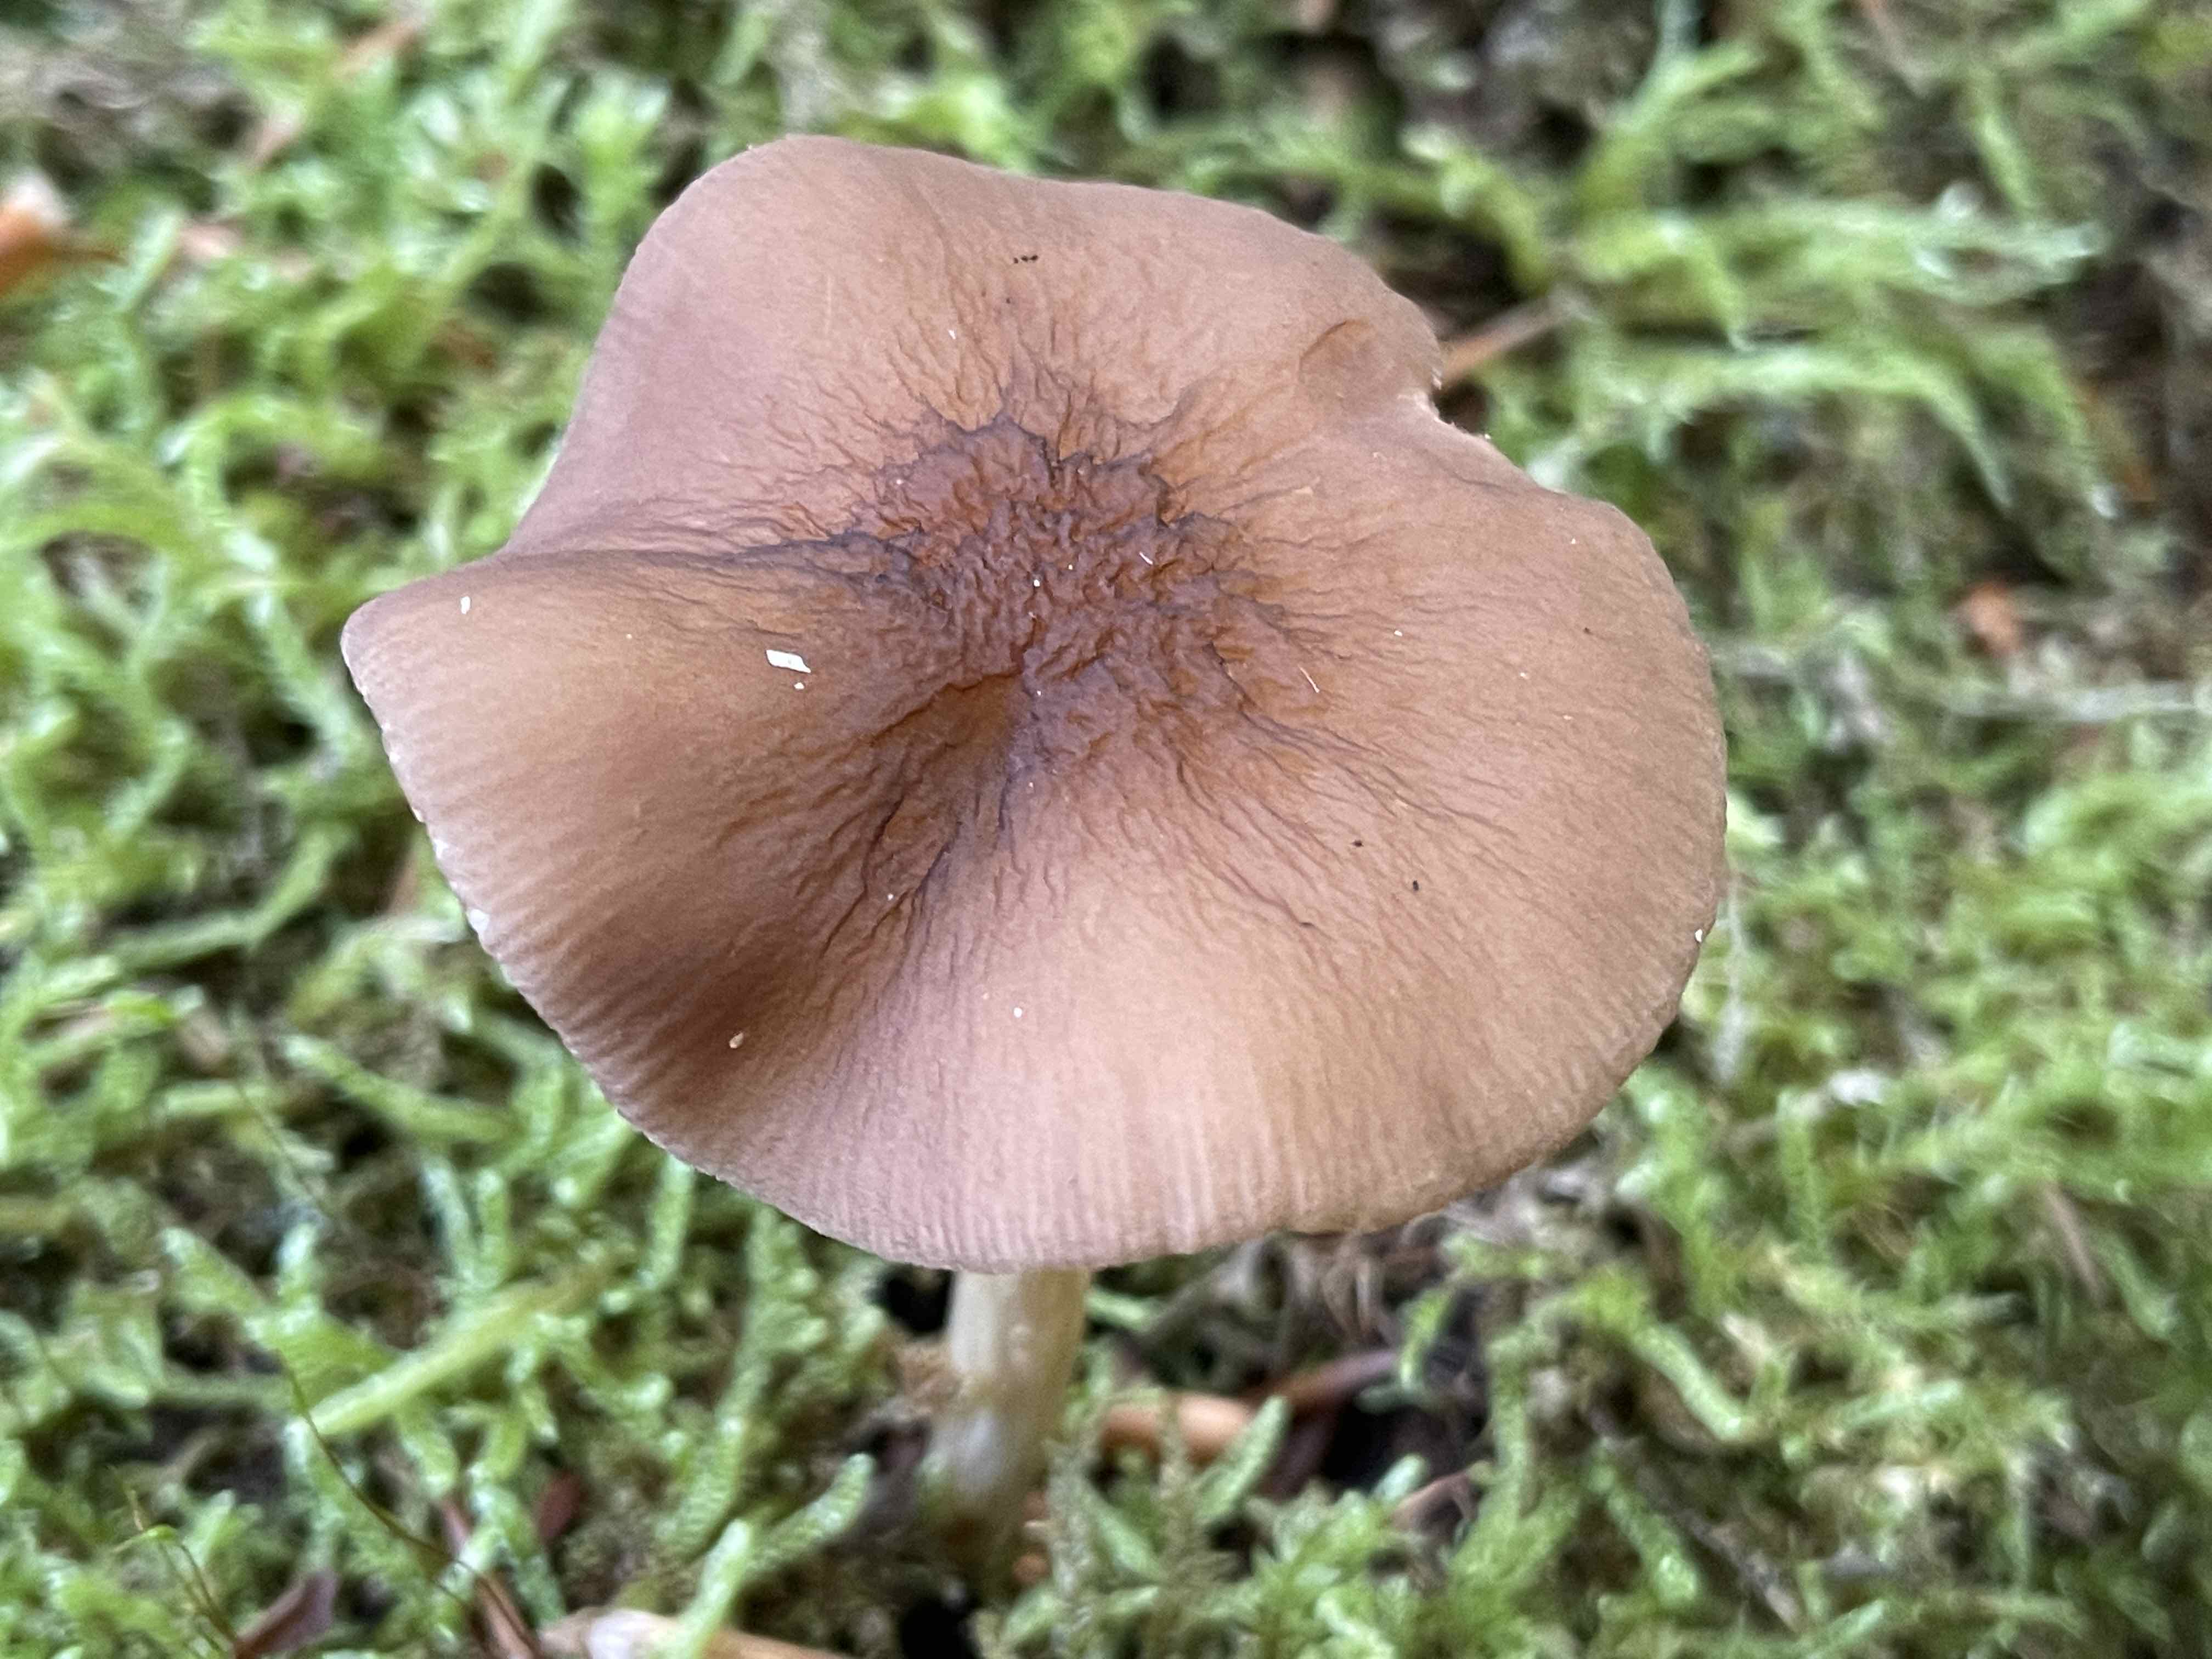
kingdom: Fungi
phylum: Basidiomycota
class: Agaricomycetes
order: Agaricales
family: Pluteaceae
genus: Pluteus
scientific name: Pluteus phlebophorus
